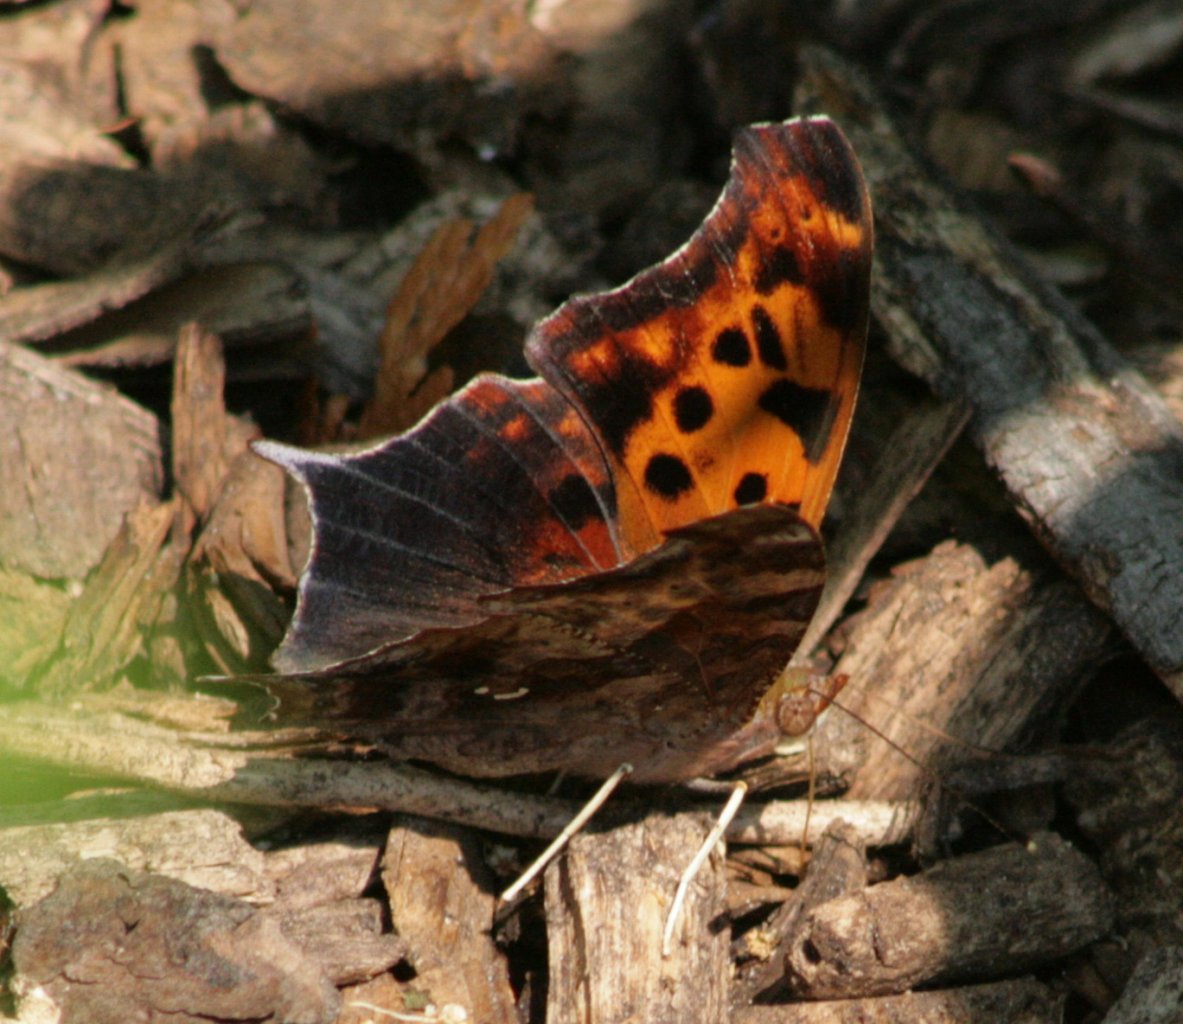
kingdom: Animalia
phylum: Arthropoda
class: Insecta
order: Lepidoptera
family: Nymphalidae
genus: Polygonia
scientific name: Polygonia interrogationis
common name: Question Mark
